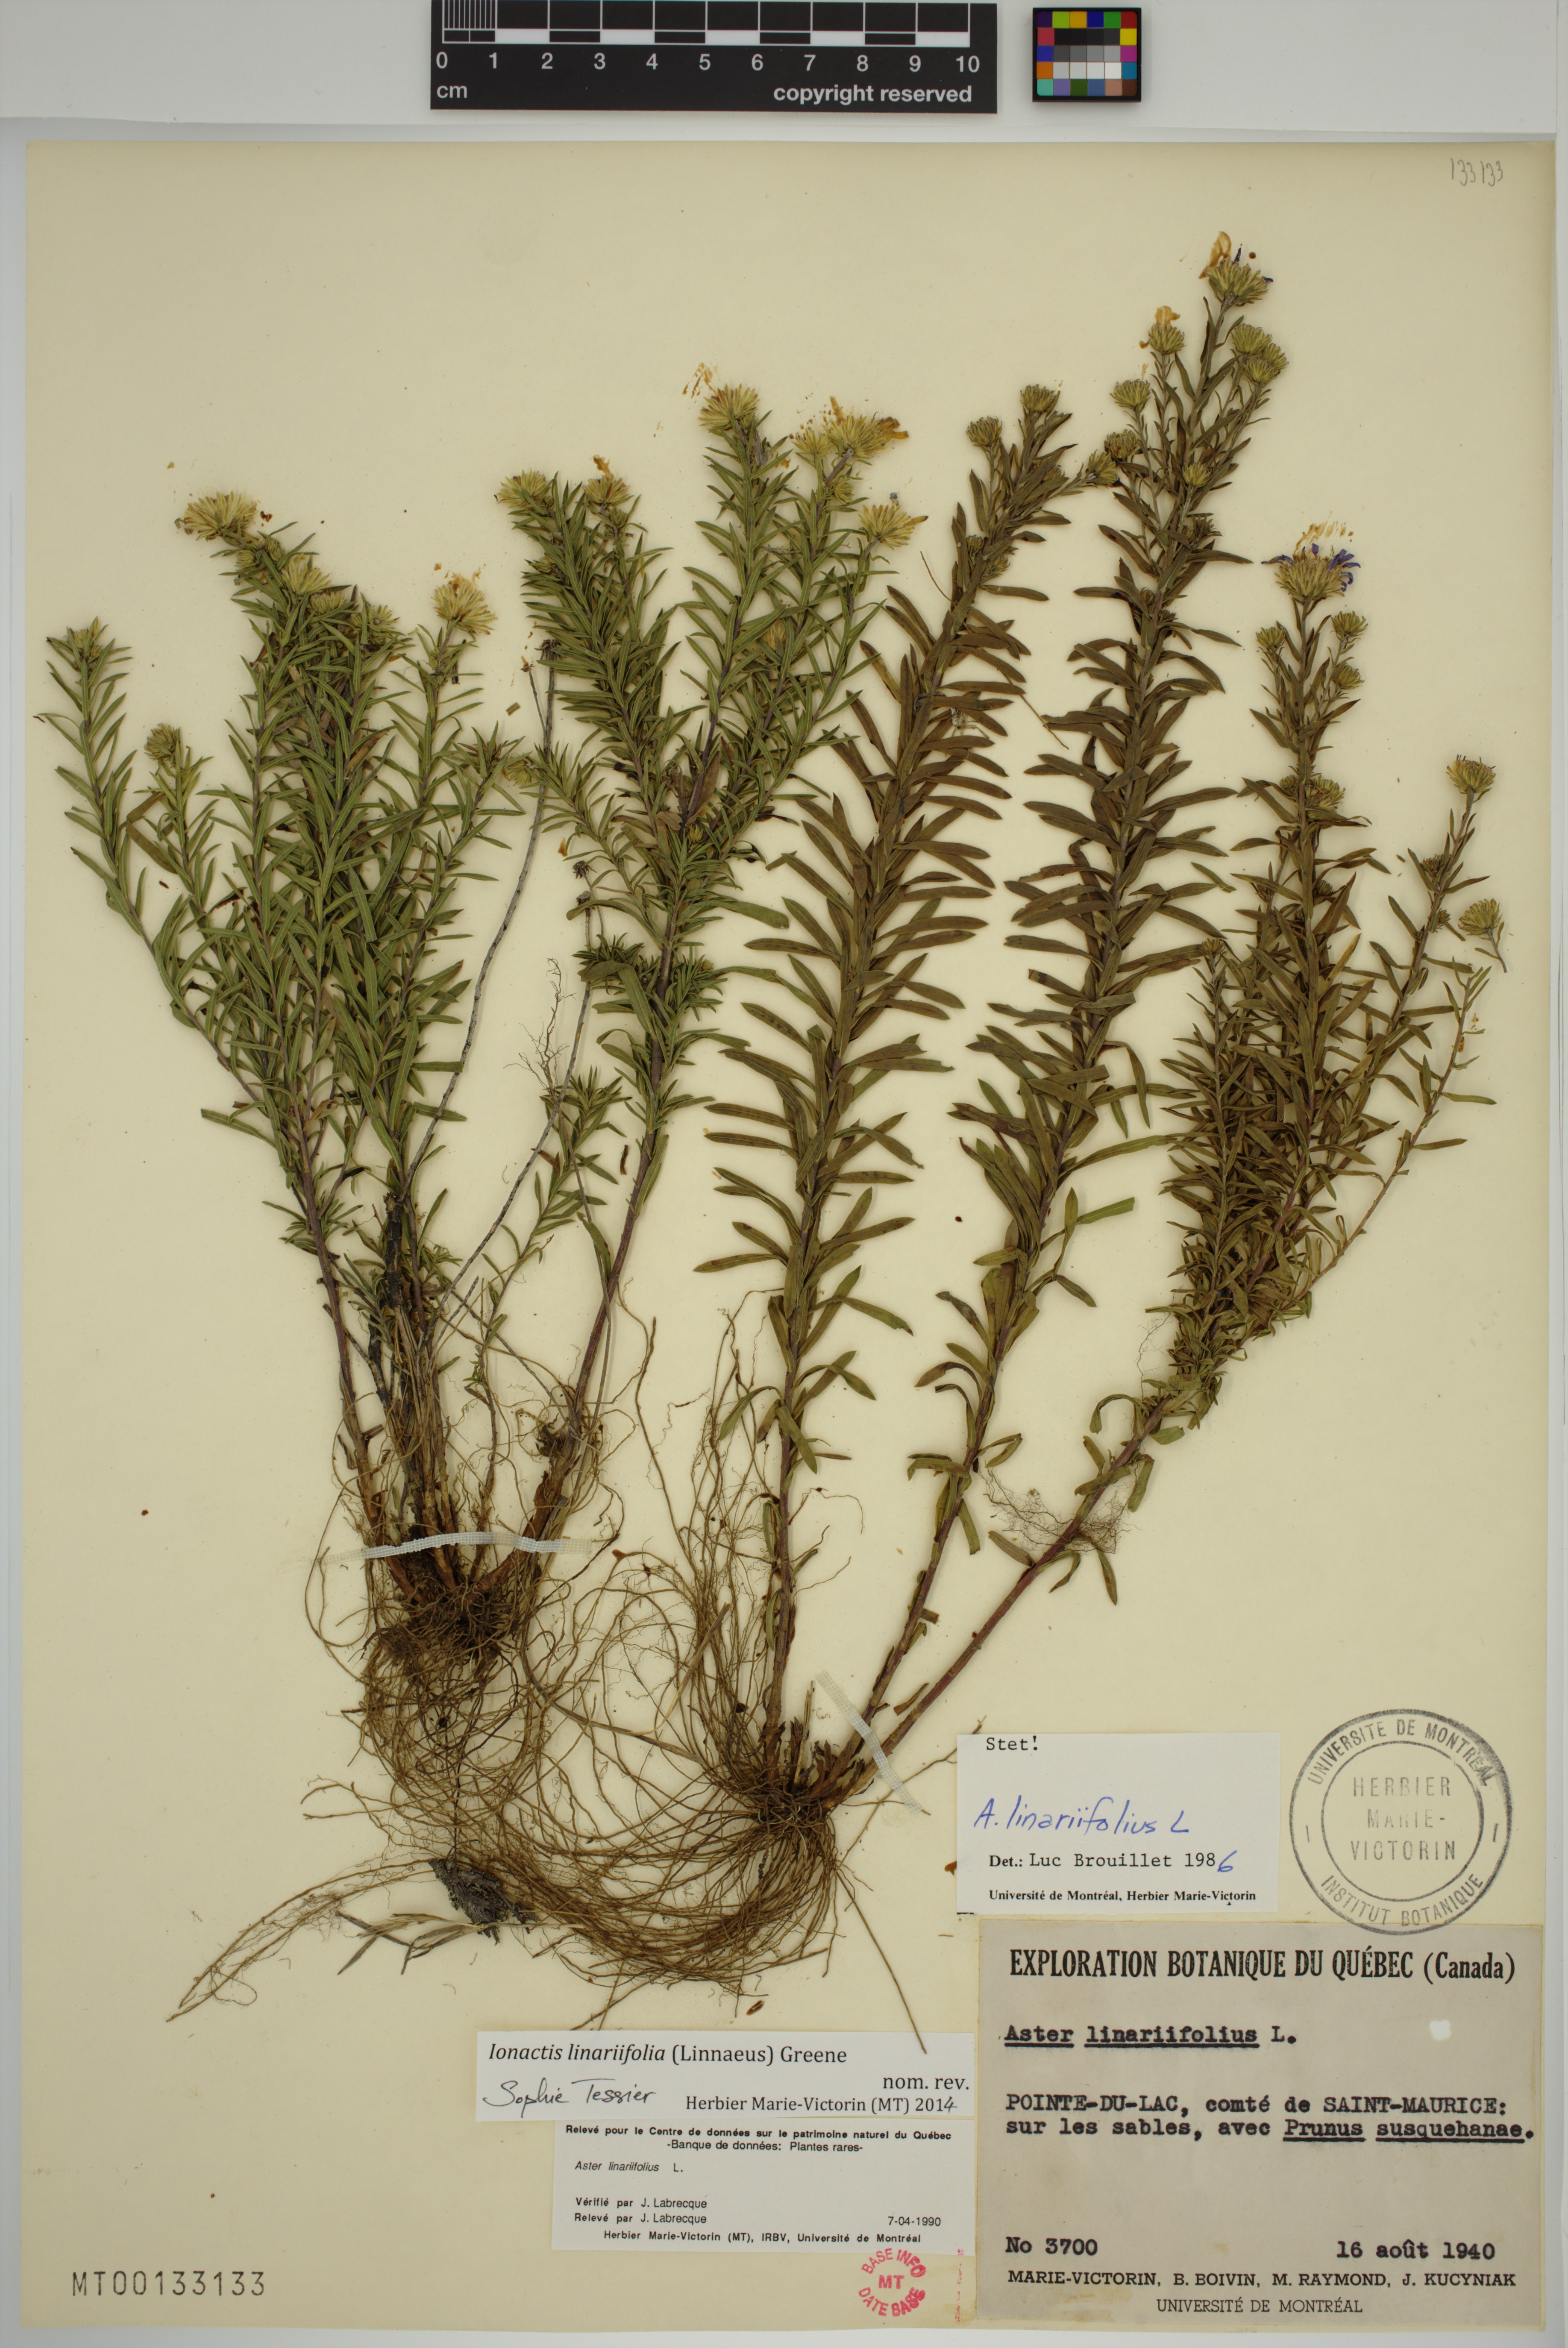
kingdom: Plantae
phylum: Tracheophyta
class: Magnoliopsida
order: Asterales
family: Asteraceae
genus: Ionactis
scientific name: Ionactis linariifolia
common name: Flax-leaf aster
